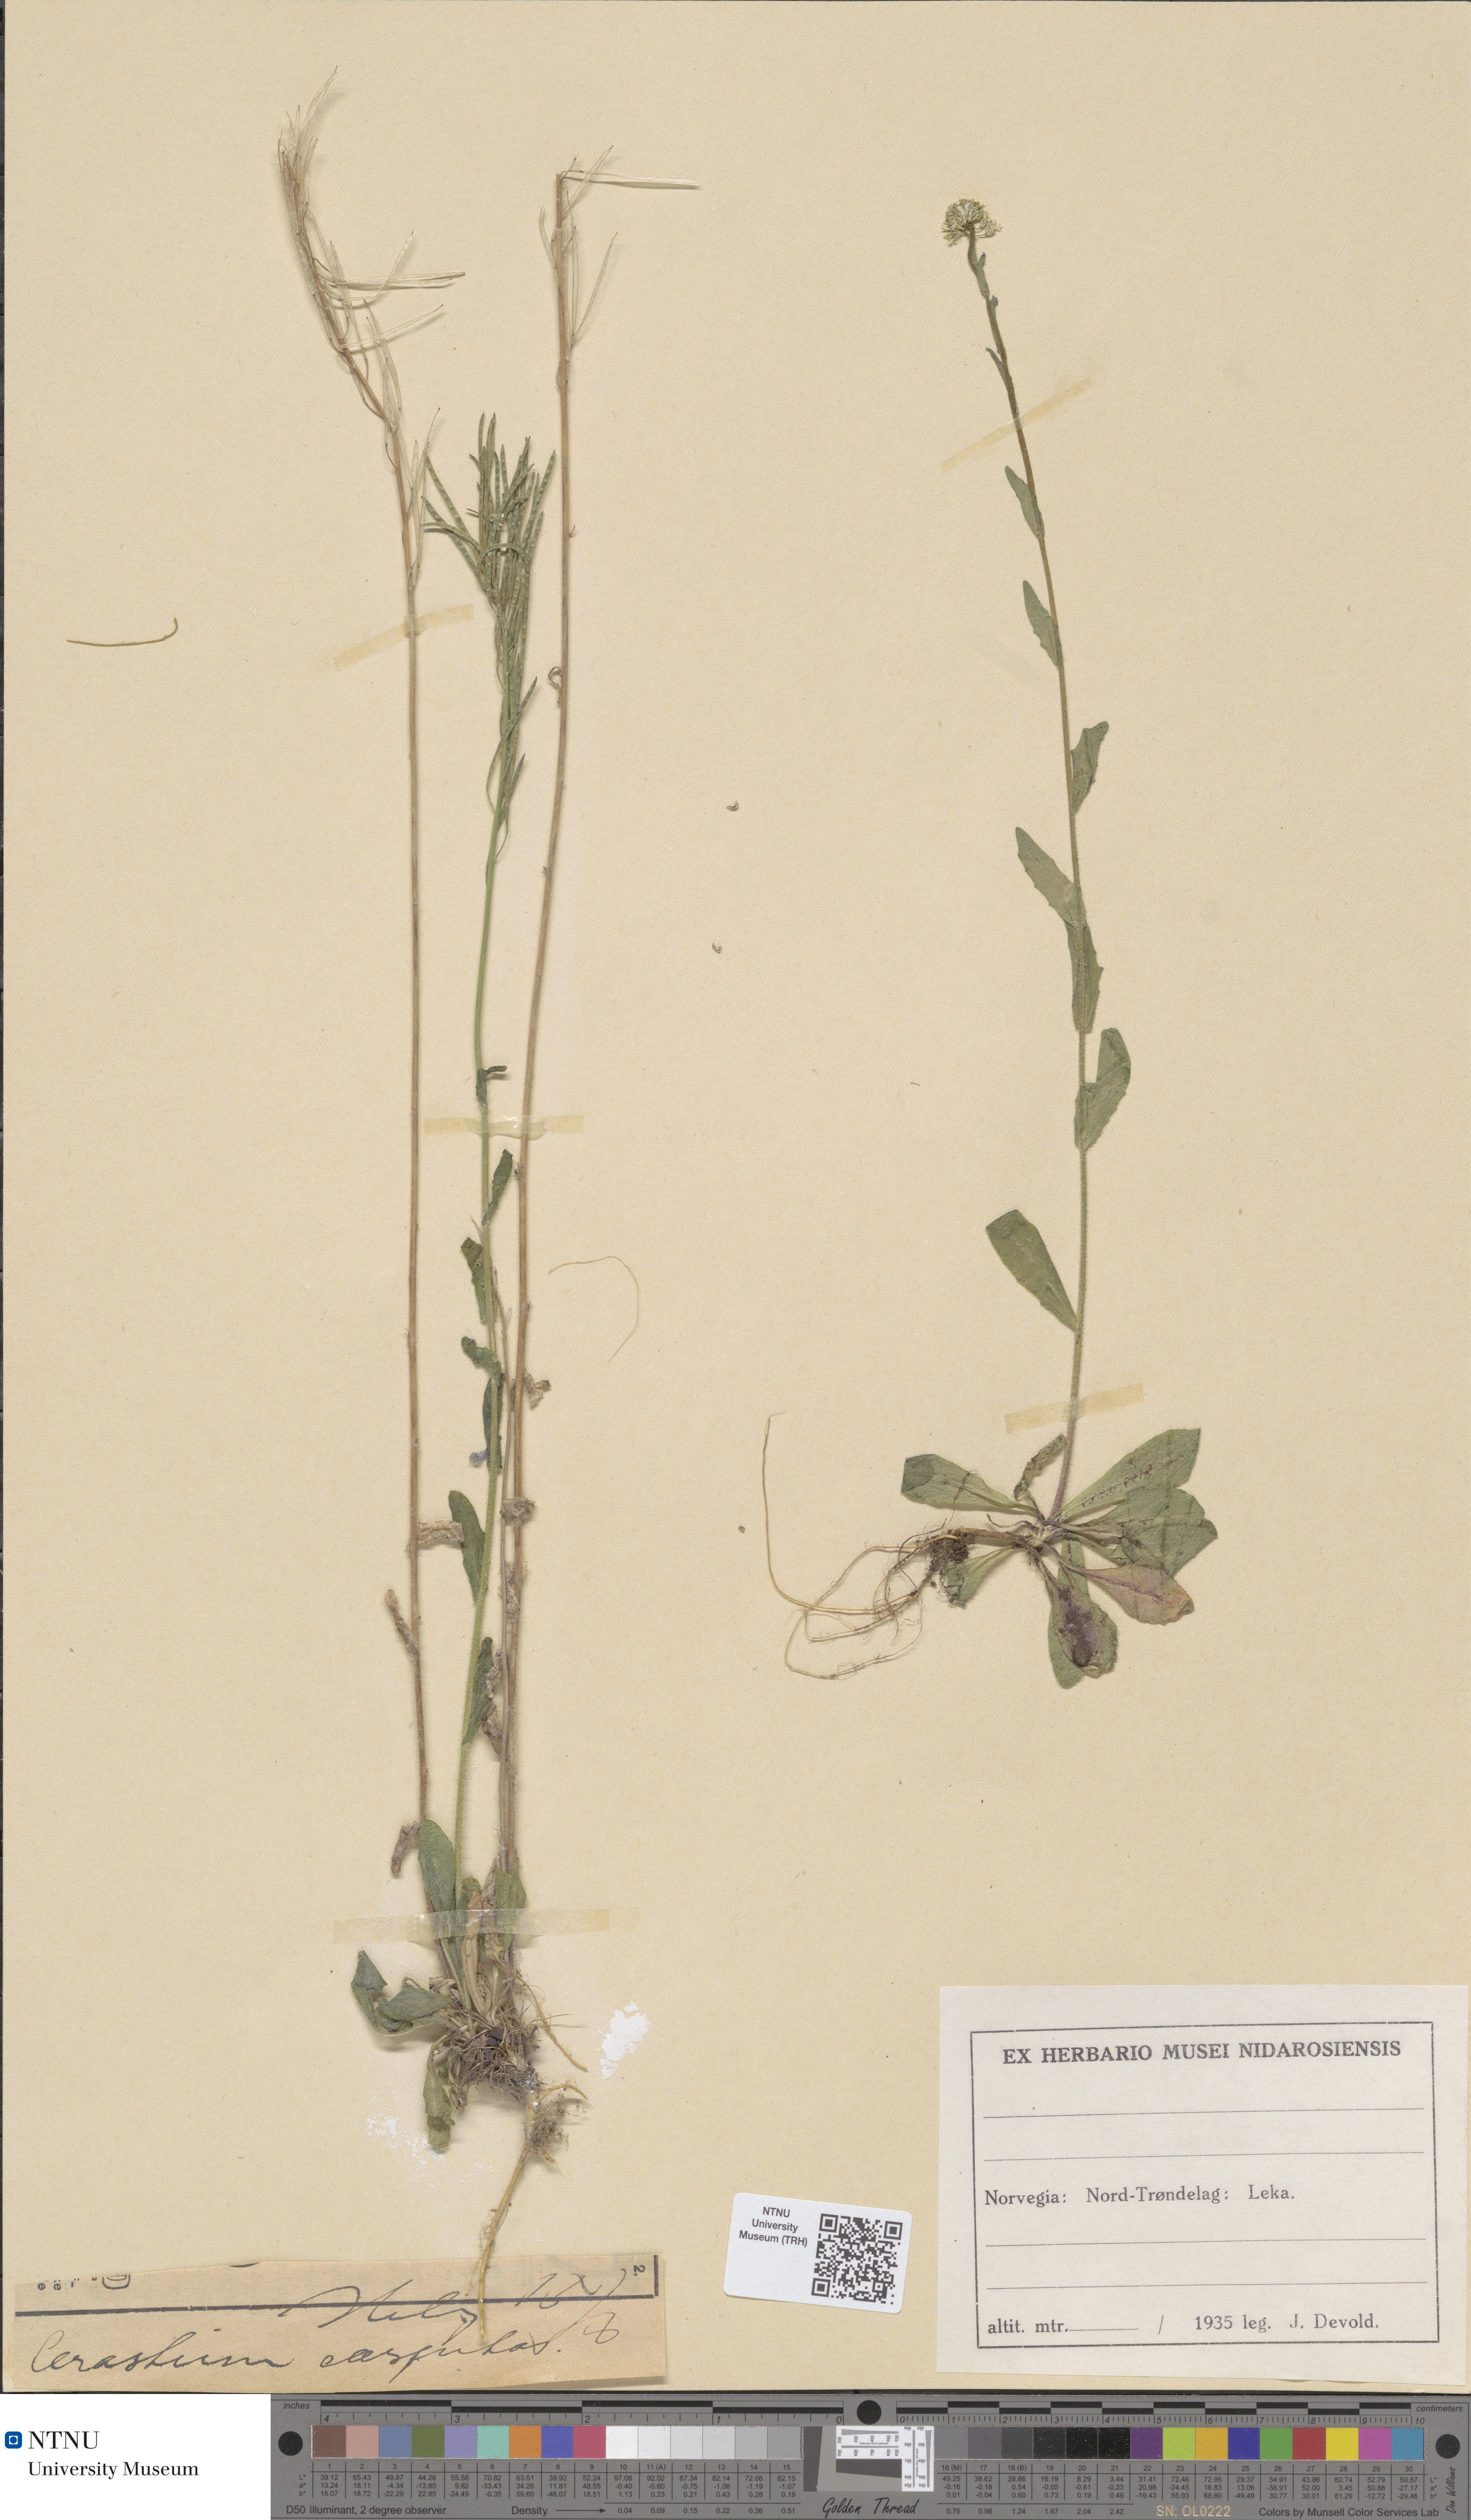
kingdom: Plantae
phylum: Tracheophyta
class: Magnoliopsida
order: Brassicales
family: Brassicaceae
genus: Arabis
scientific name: Arabis hirsuta
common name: Hairy rock-cress
